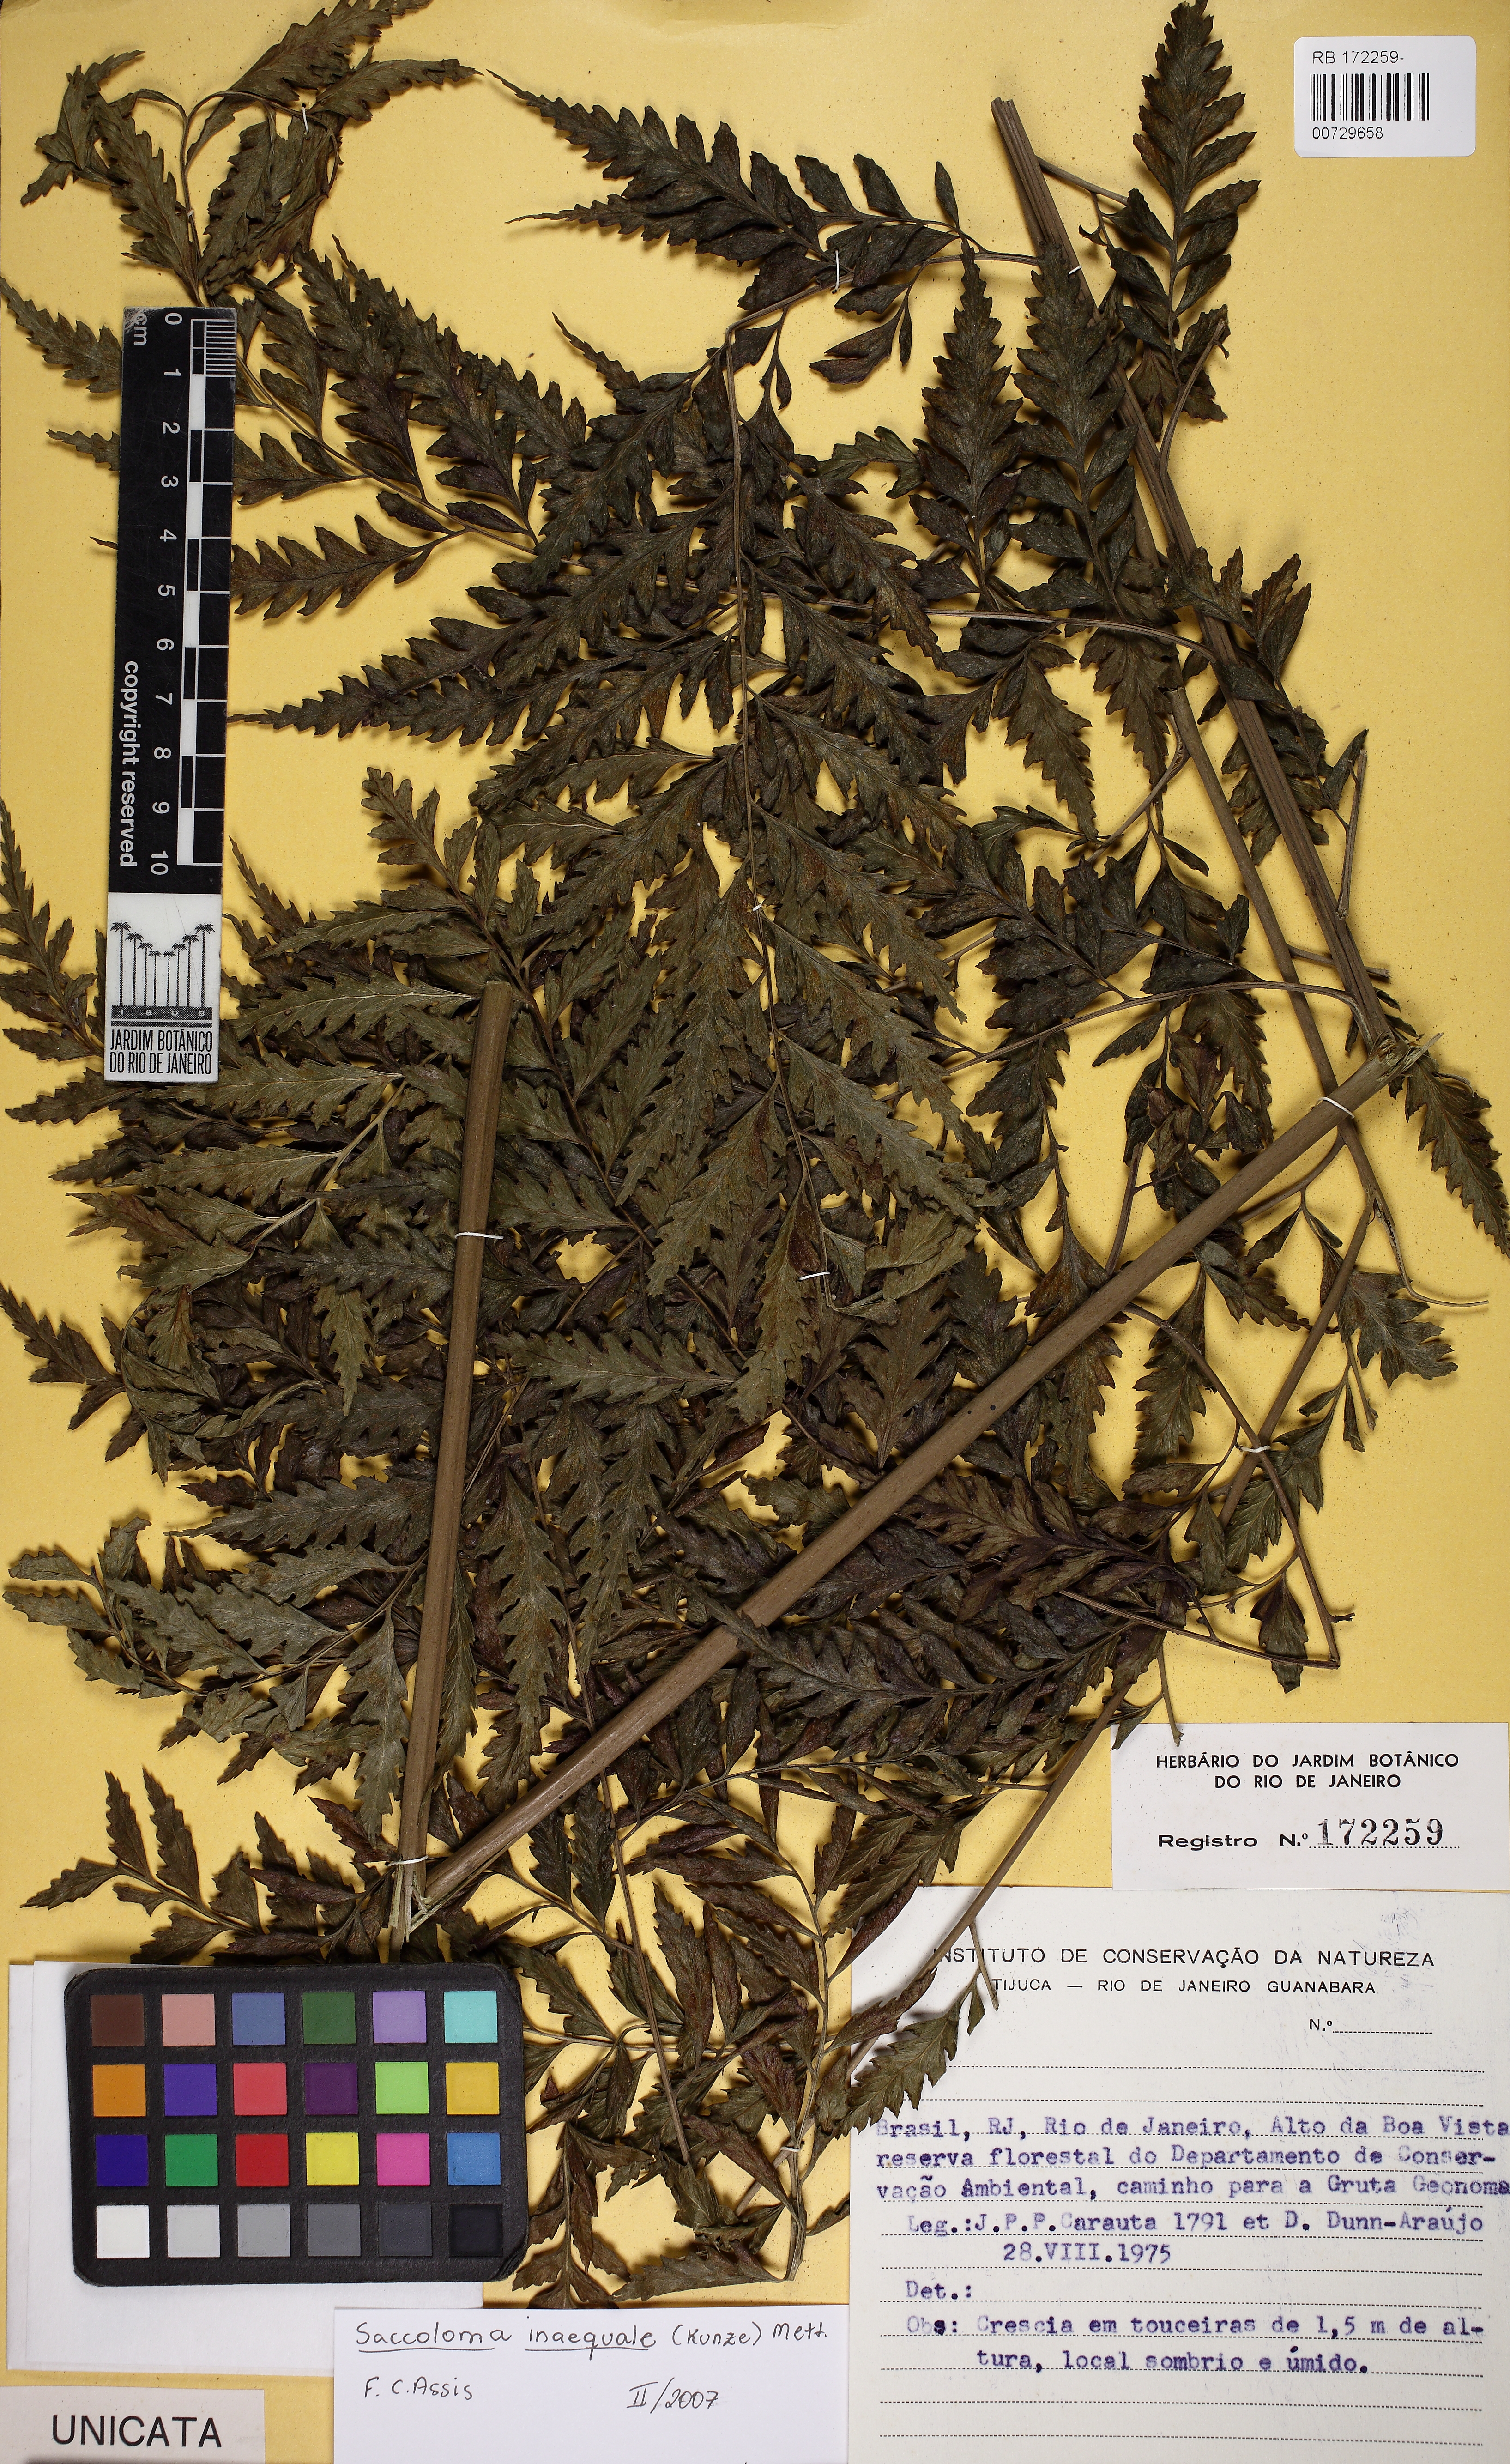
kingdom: Plantae
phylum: Tracheophyta
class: Polypodiopsida
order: Polypodiales
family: Saccolomataceae
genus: Saccoloma
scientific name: Saccoloma brasiliense
